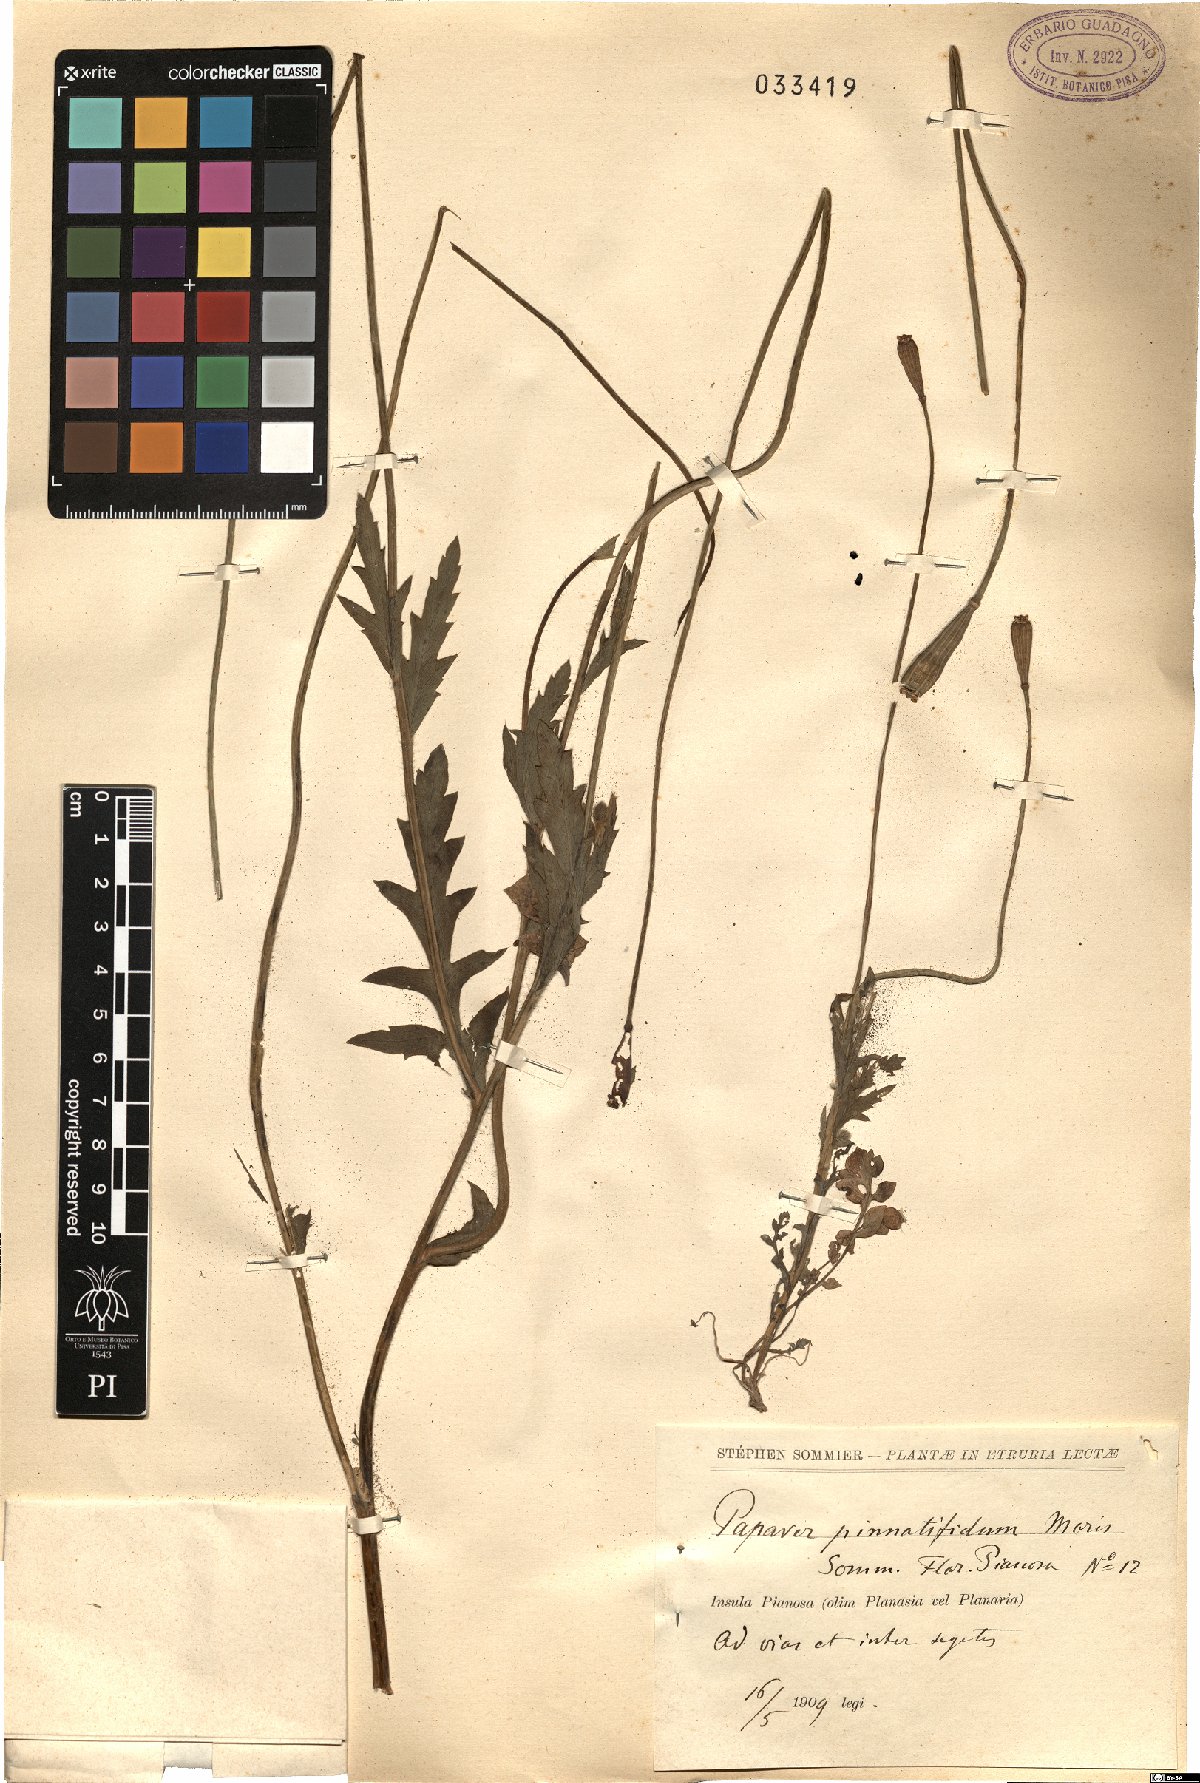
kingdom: Plantae
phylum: Tracheophyta
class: Magnoliopsida
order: Ranunculales
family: Papaveraceae
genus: Papaver
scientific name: Papaver pinnatifidum
